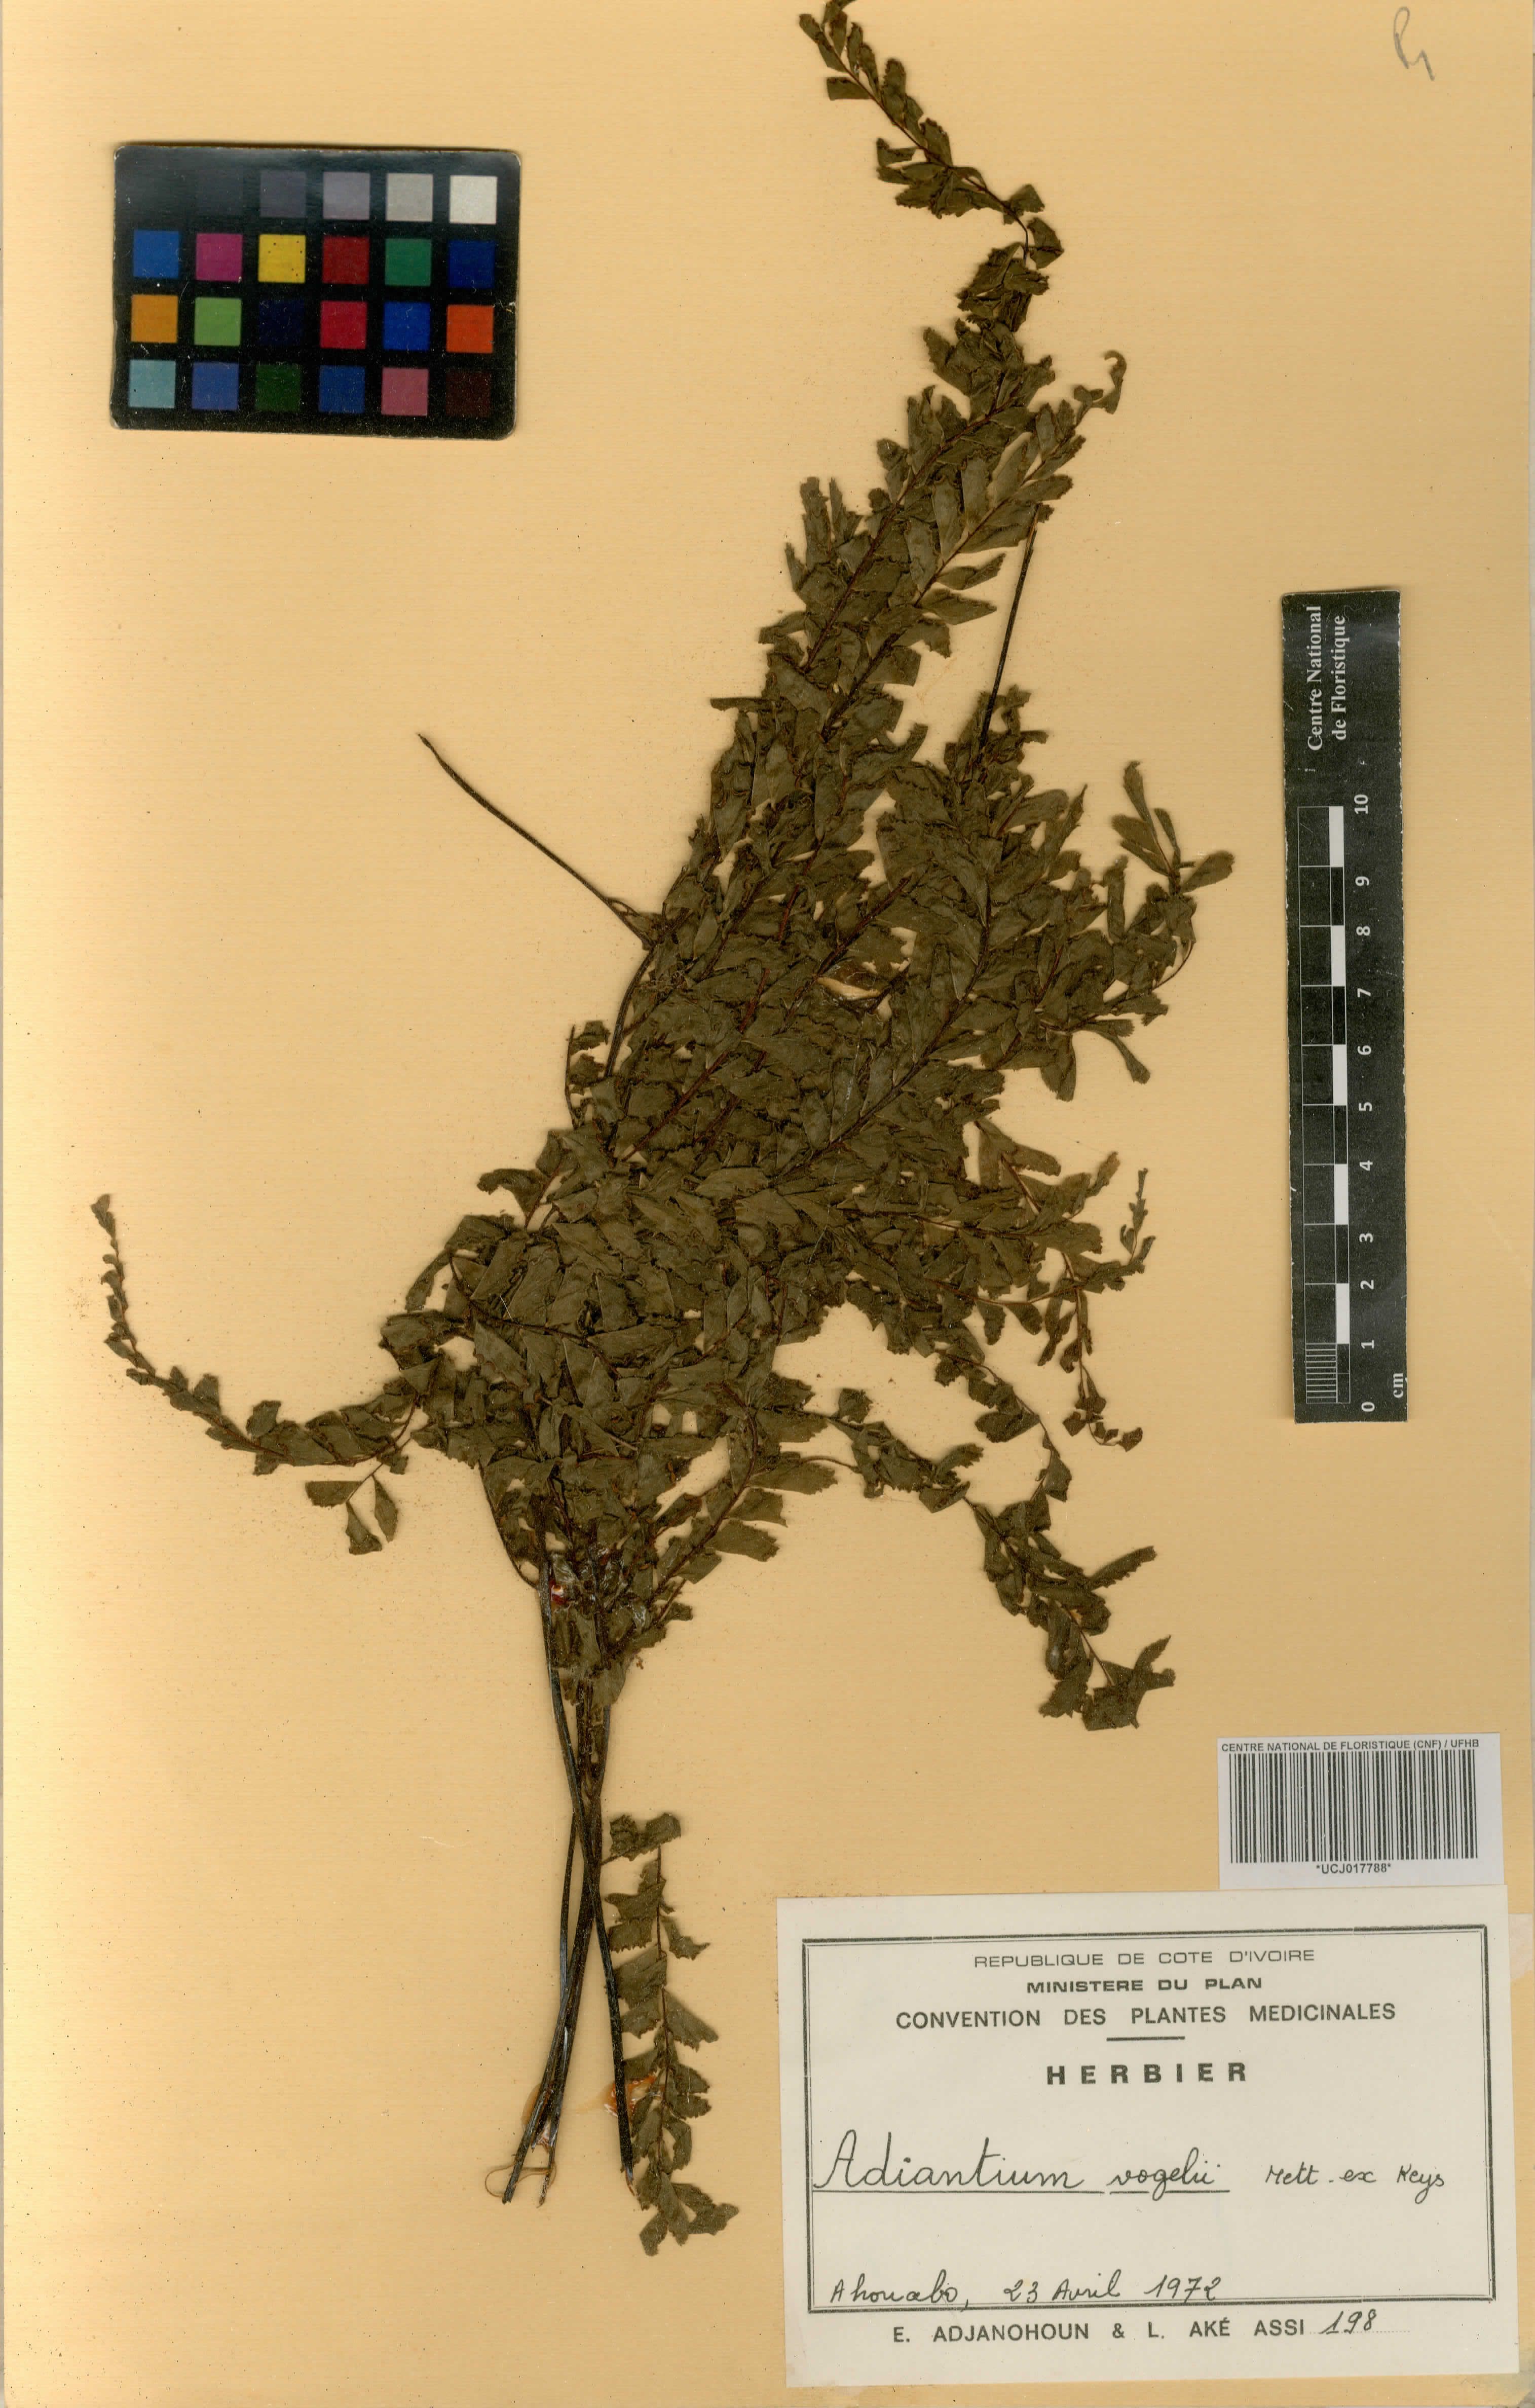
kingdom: Plantae
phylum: Tracheophyta
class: Polypodiopsida
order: Polypodiales
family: Pteridaceae
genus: Adiantum
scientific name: Adiantum vogelii
